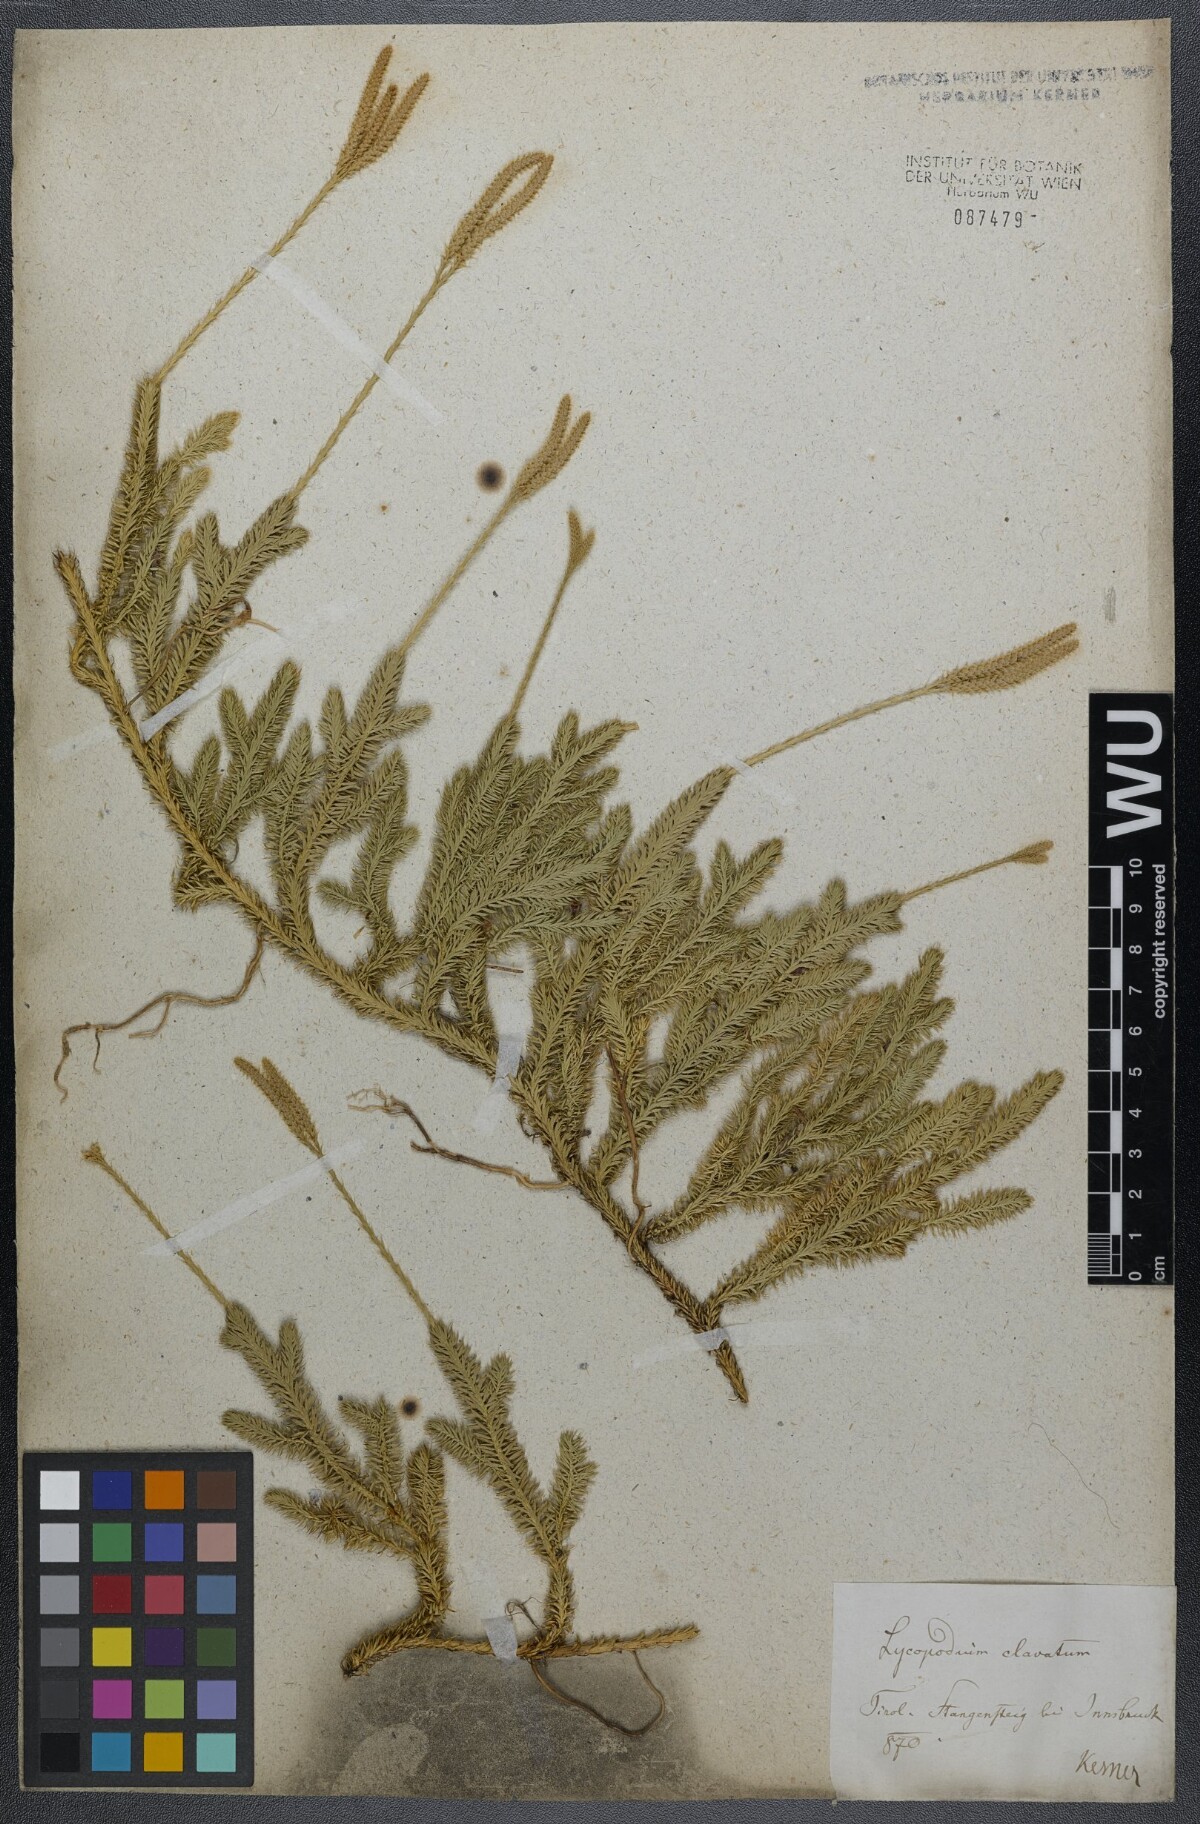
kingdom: Plantae
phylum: Tracheophyta
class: Lycopodiopsida
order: Lycopodiales
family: Lycopodiaceae
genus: Lycopodium
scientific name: Lycopodium clavatum
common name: Stag's-horn clubmoss
